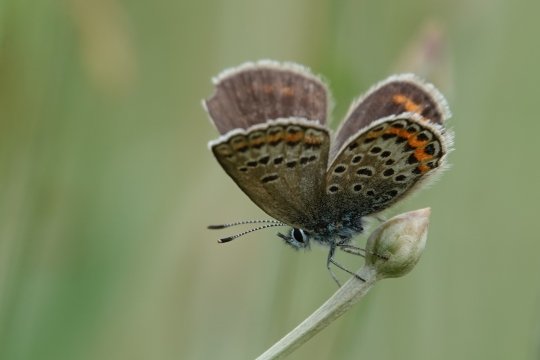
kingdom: Animalia
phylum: Arthropoda
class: Insecta
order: Lepidoptera
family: Lycaenidae
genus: Plebejus
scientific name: Plebejus argus
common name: Silver-studded Blue
